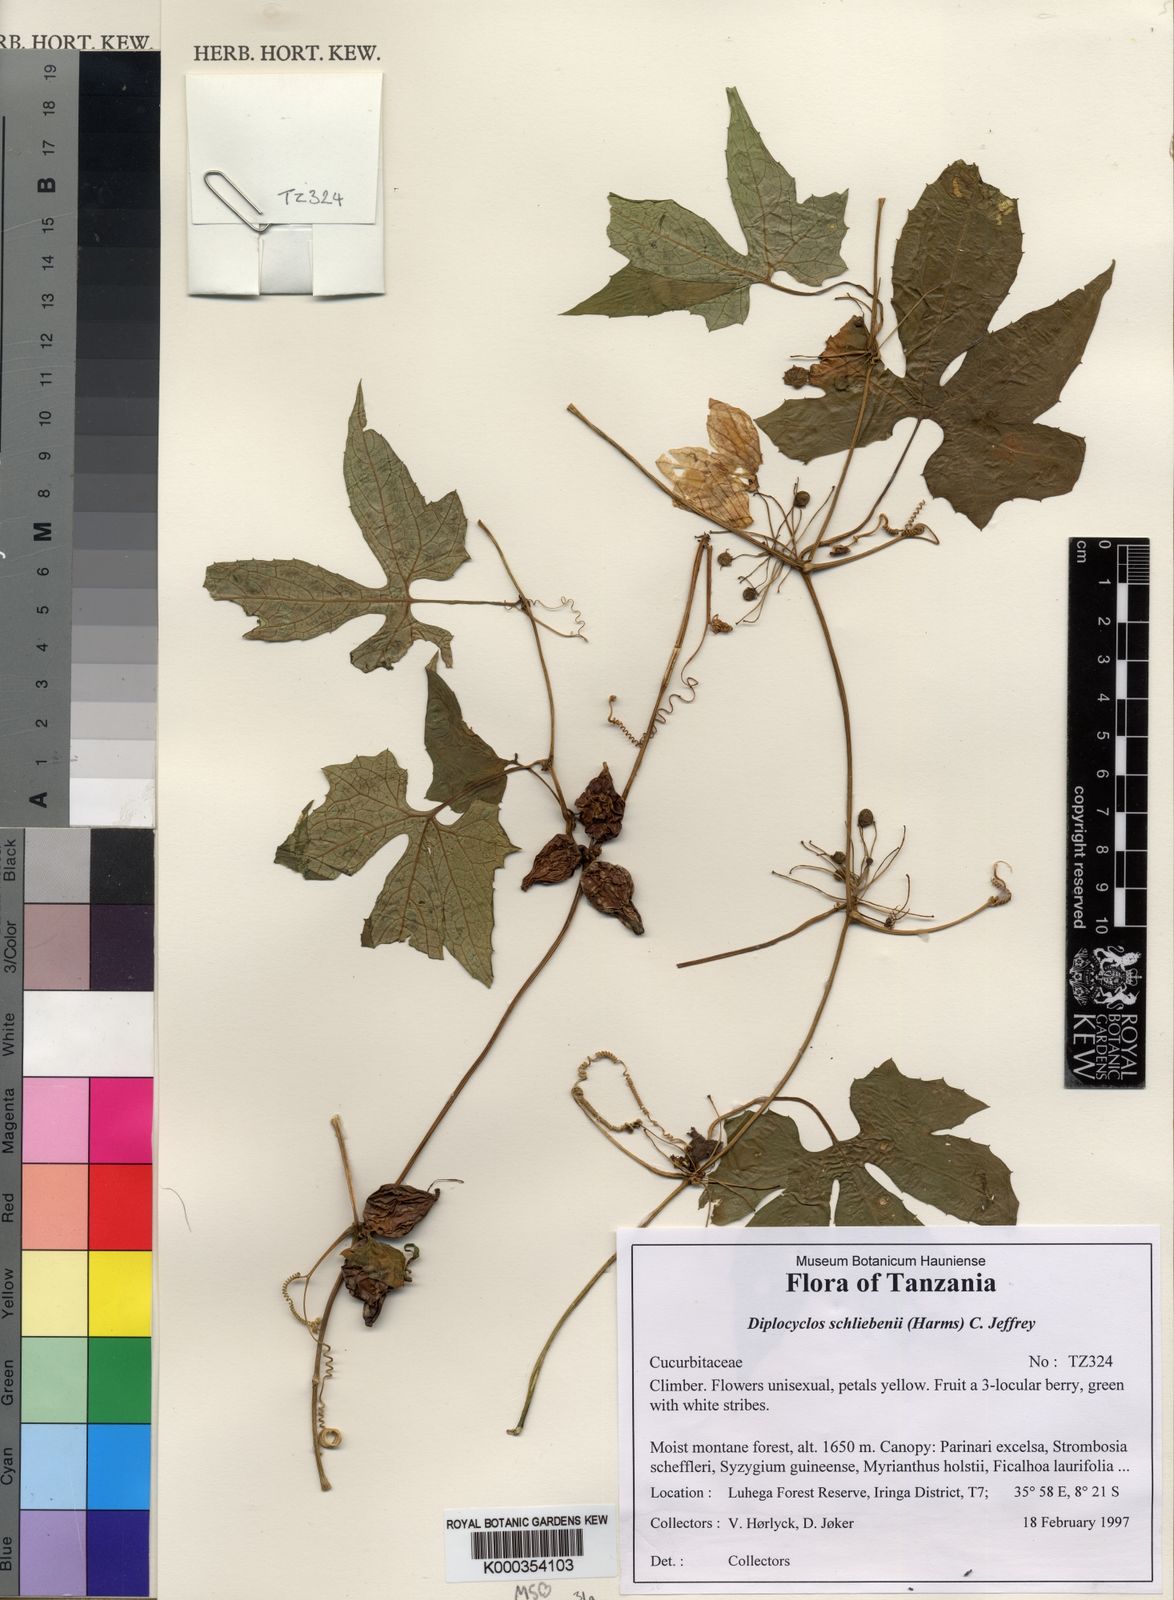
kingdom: Plantae
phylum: Tracheophyta
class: Magnoliopsida
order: Cucurbitales
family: Cucurbitaceae
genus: Diplocyclos
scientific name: Diplocyclos schliebenii
